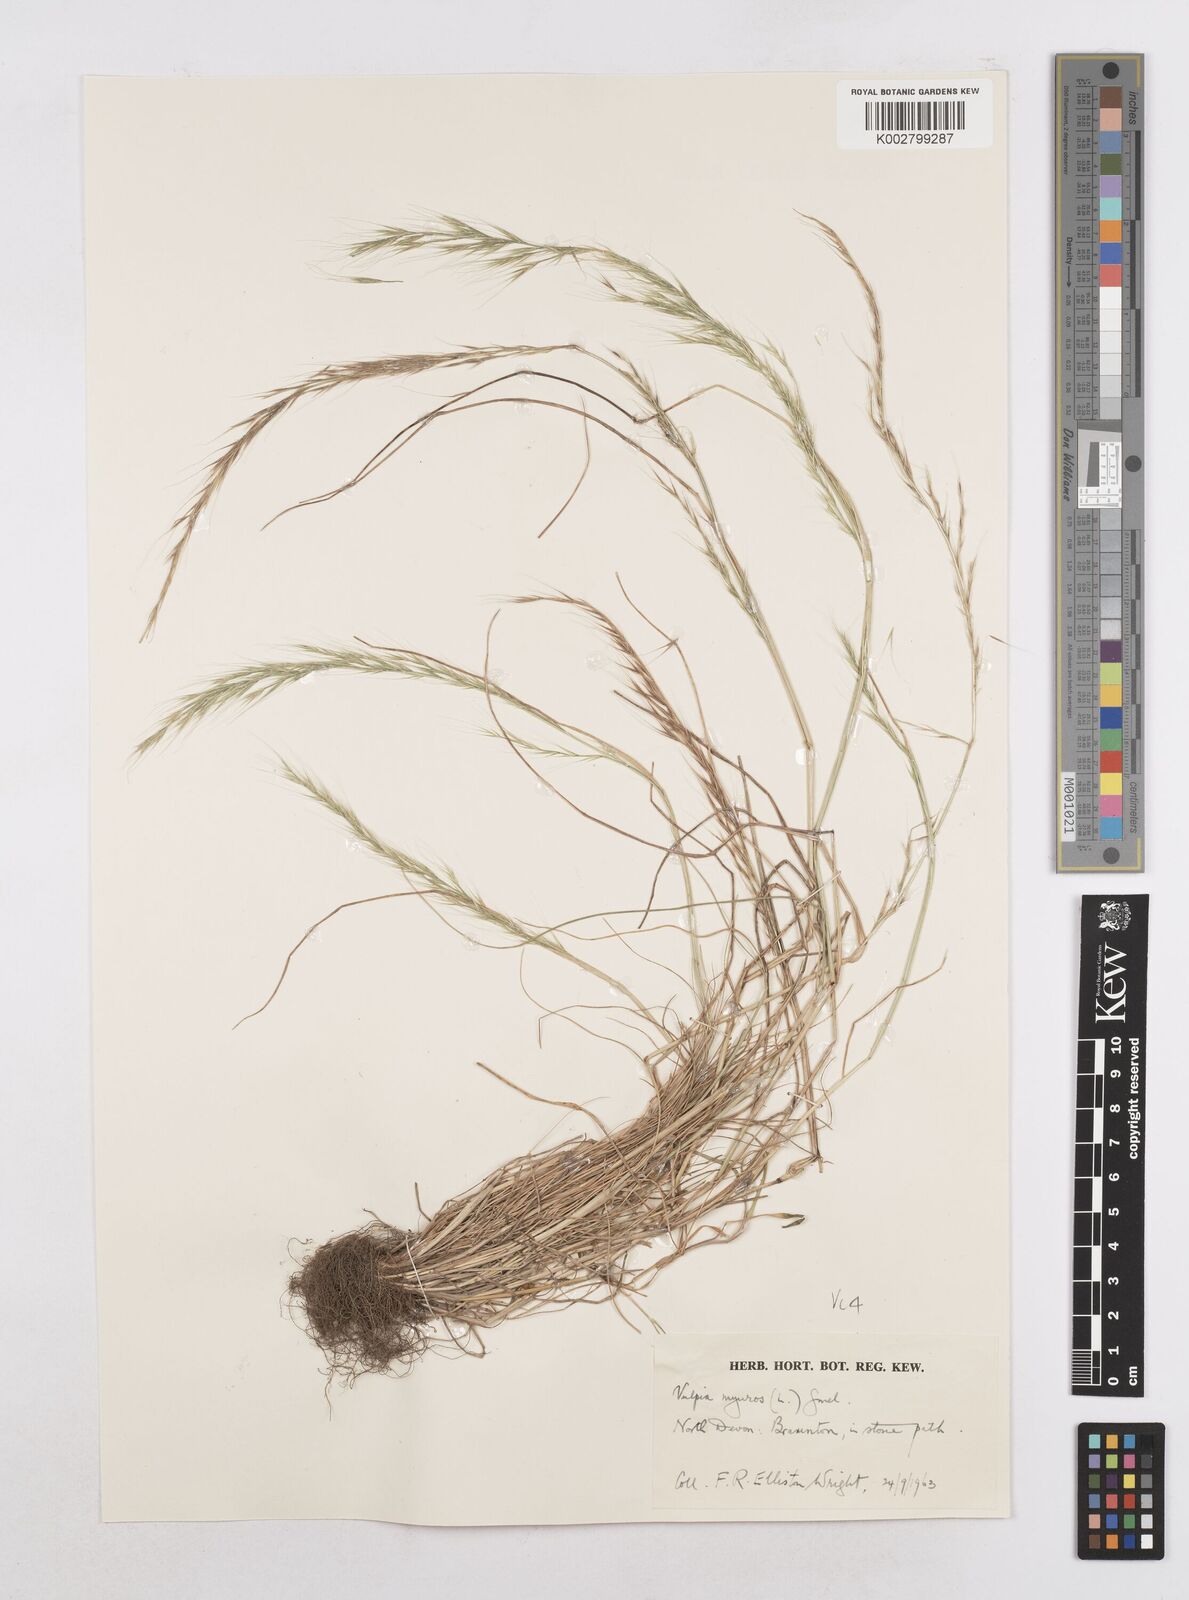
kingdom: Plantae
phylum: Tracheophyta
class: Liliopsida
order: Poales
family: Poaceae
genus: Festuca
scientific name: Festuca myuros
